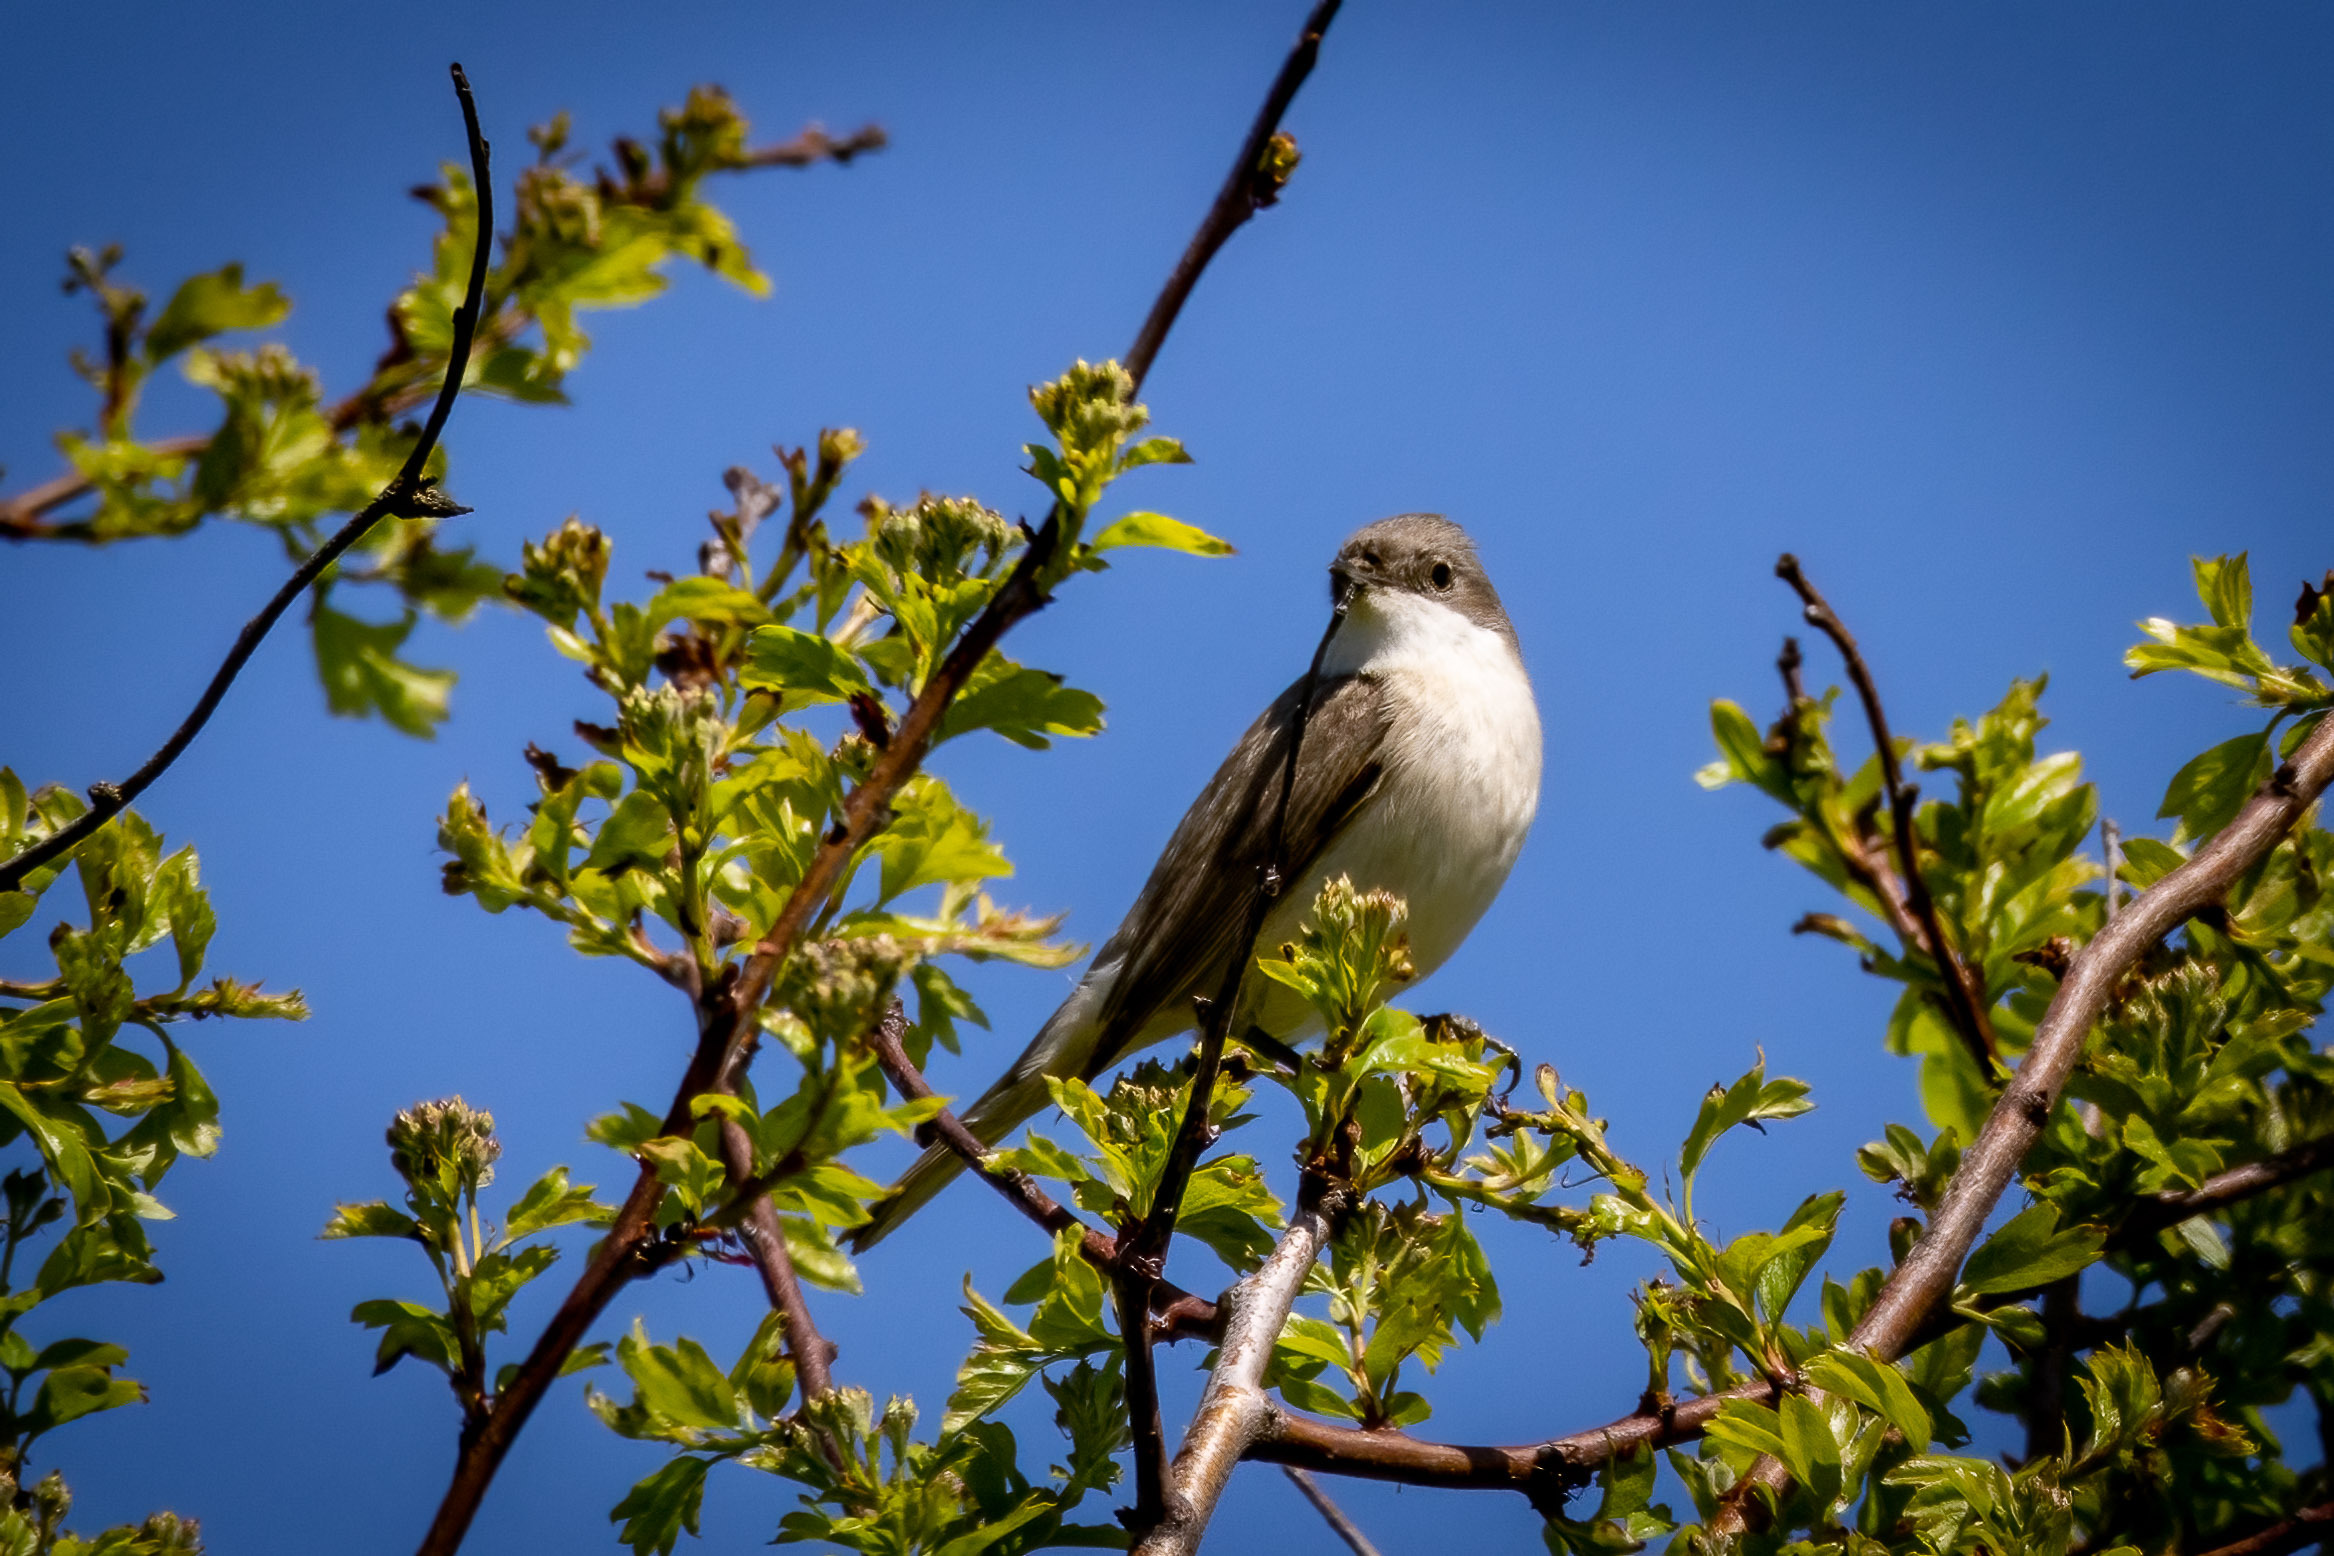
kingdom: Animalia
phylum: Chordata
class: Aves
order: Passeriformes
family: Sylviidae
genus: Sylvia
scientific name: Sylvia curruca
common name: Gærdesanger
